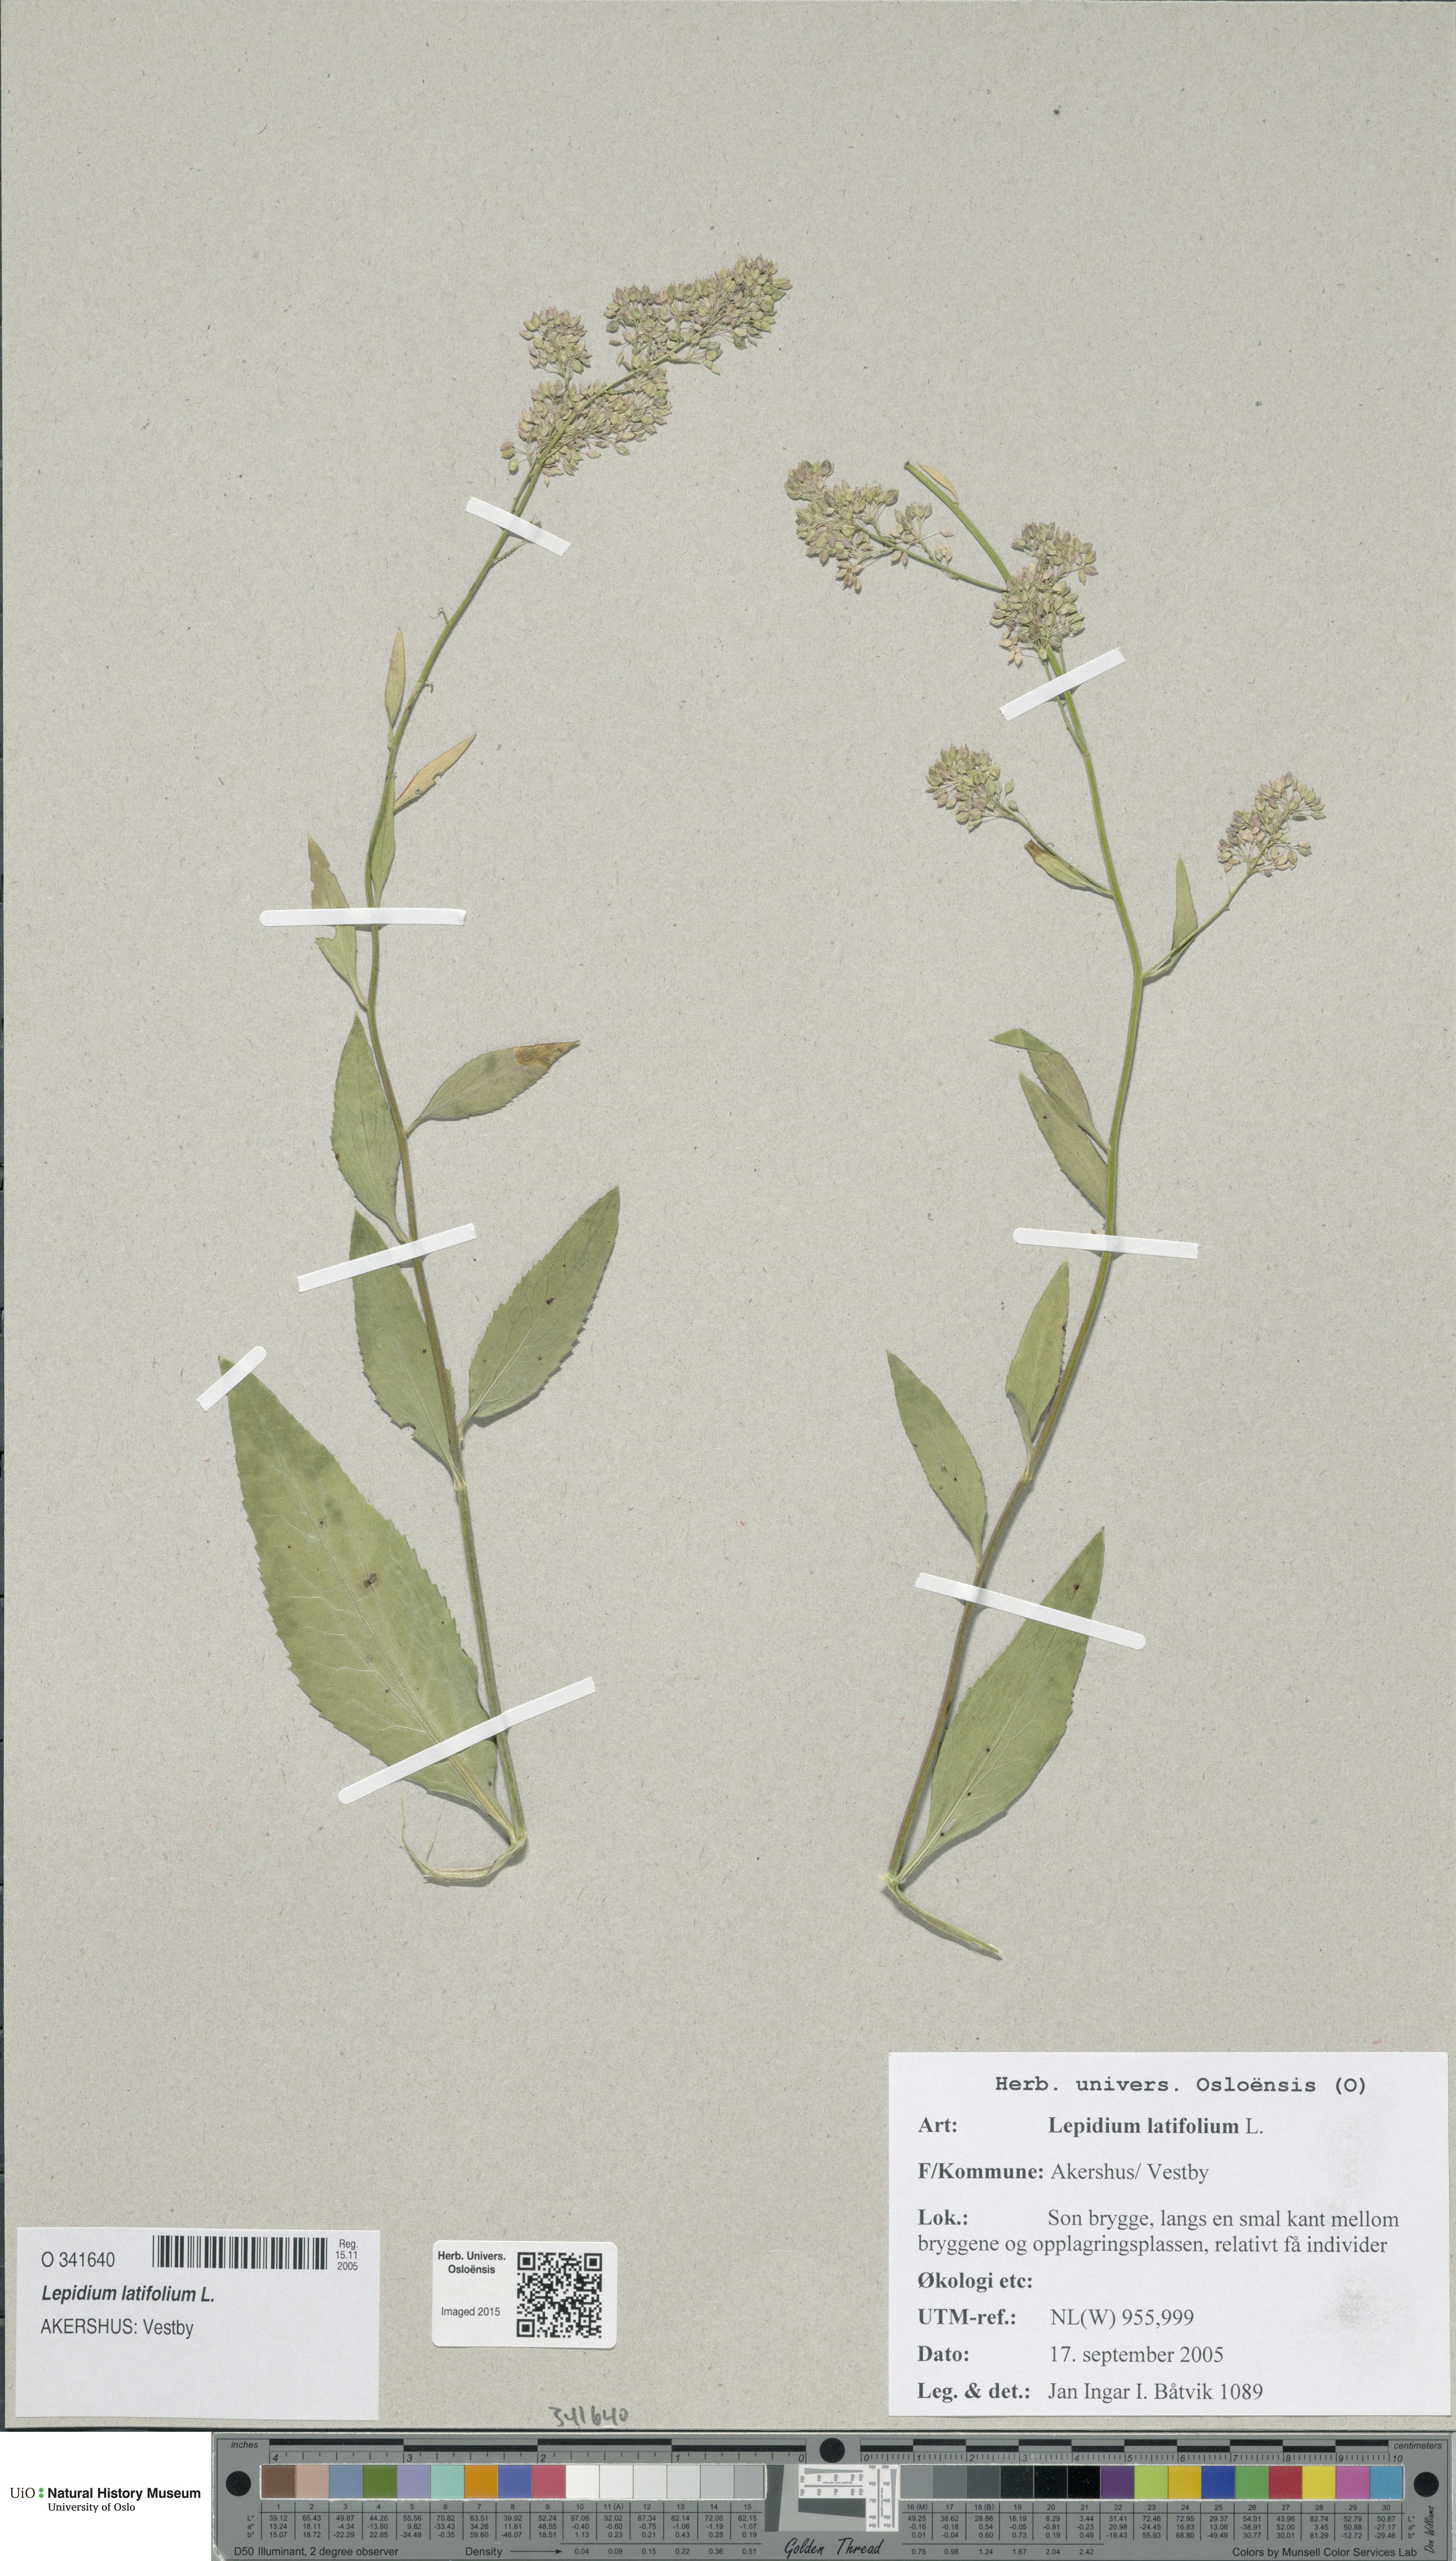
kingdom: Plantae
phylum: Tracheophyta
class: Magnoliopsida
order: Brassicales
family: Brassicaceae
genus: Lepidium
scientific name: Lepidium latifolium
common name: Dittander
